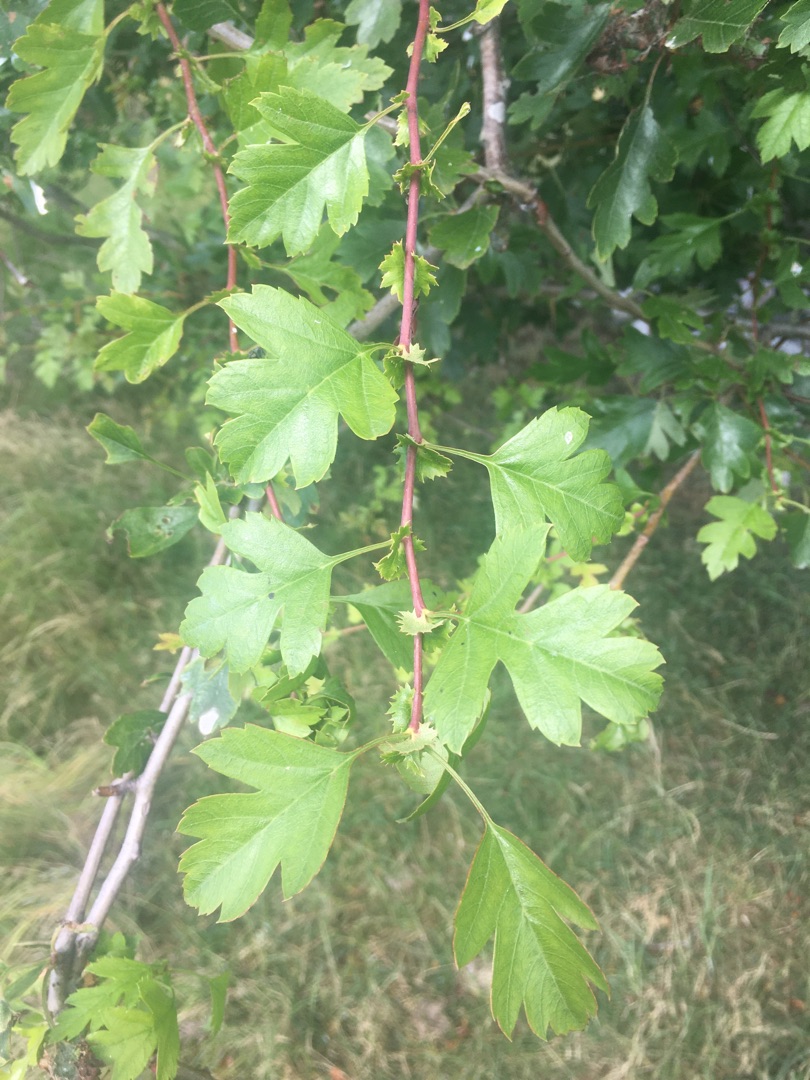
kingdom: Plantae
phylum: Tracheophyta
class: Magnoliopsida
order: Rosales
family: Rosaceae
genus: Crataegus
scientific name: Crataegus subsphaerica
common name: Engriflet hvidtjørn × koral-hvidtjørn
